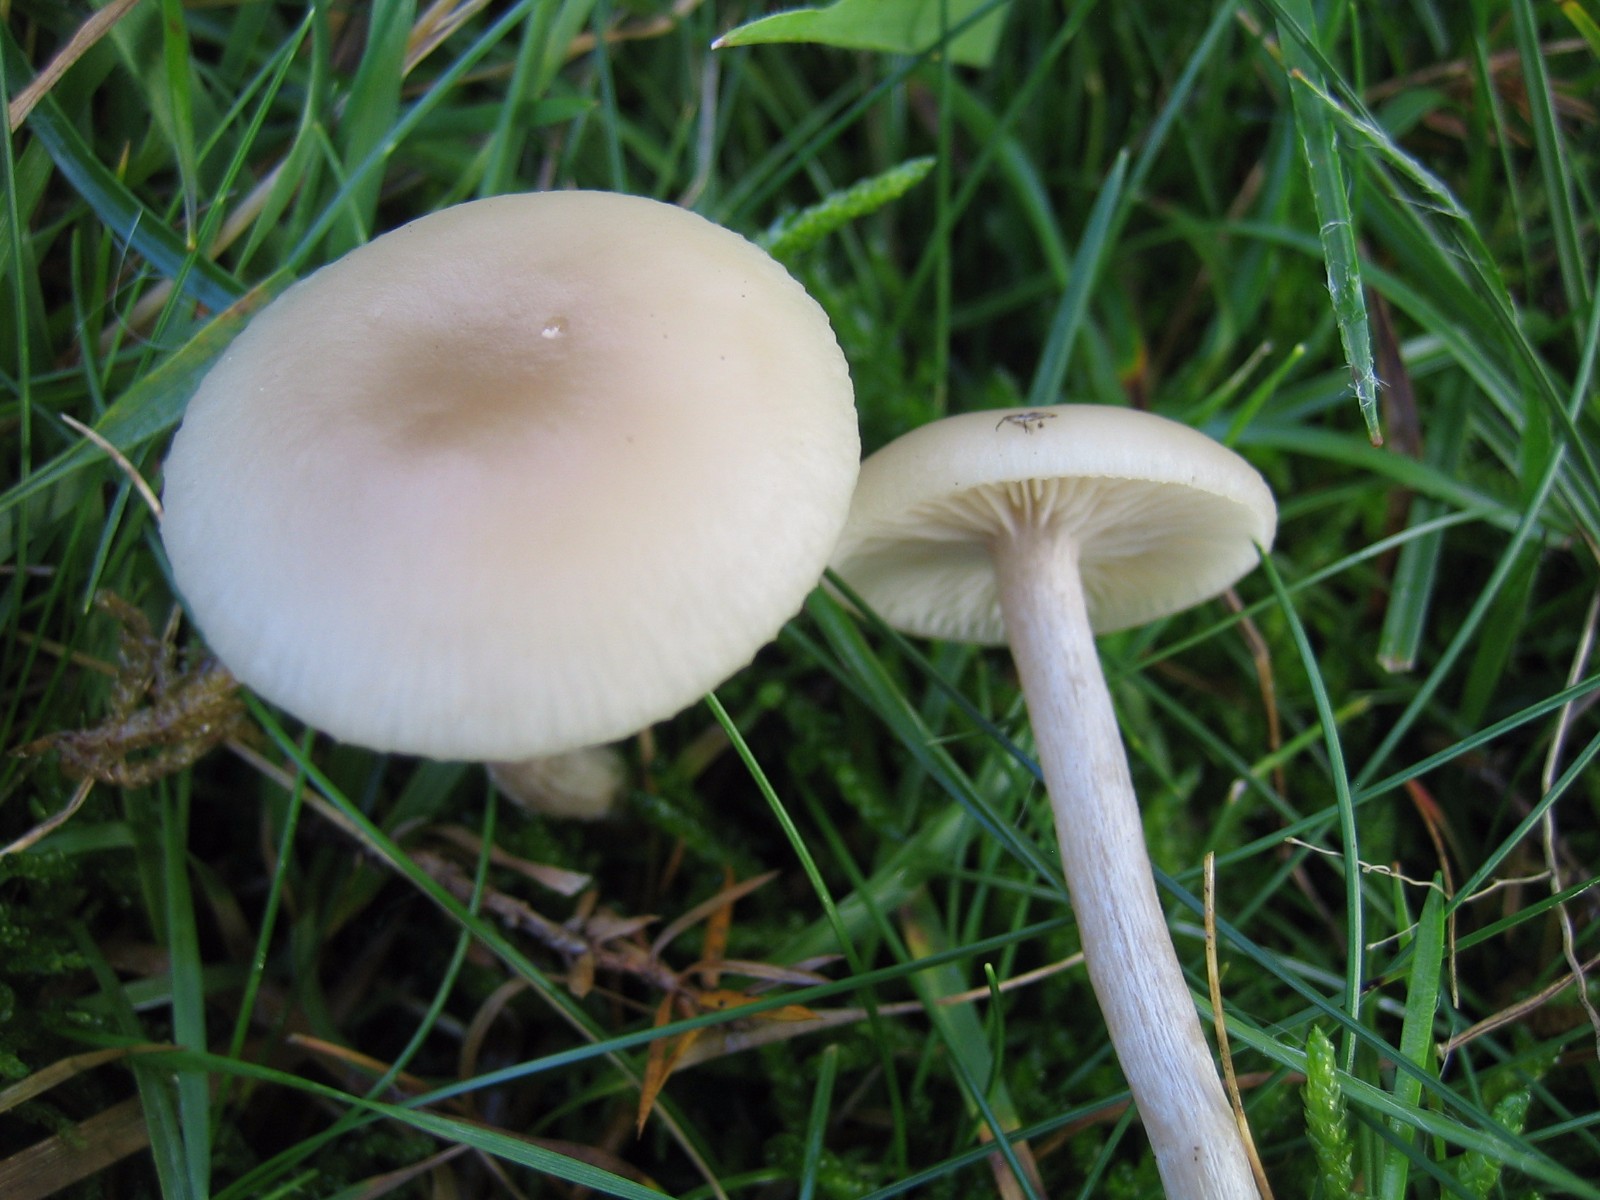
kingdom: Fungi
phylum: Basidiomycota
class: Agaricomycetes
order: Agaricales
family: Hygrophoraceae
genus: Cuphophyllus
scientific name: Cuphophyllus virgineus
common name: snehvid vokshat
